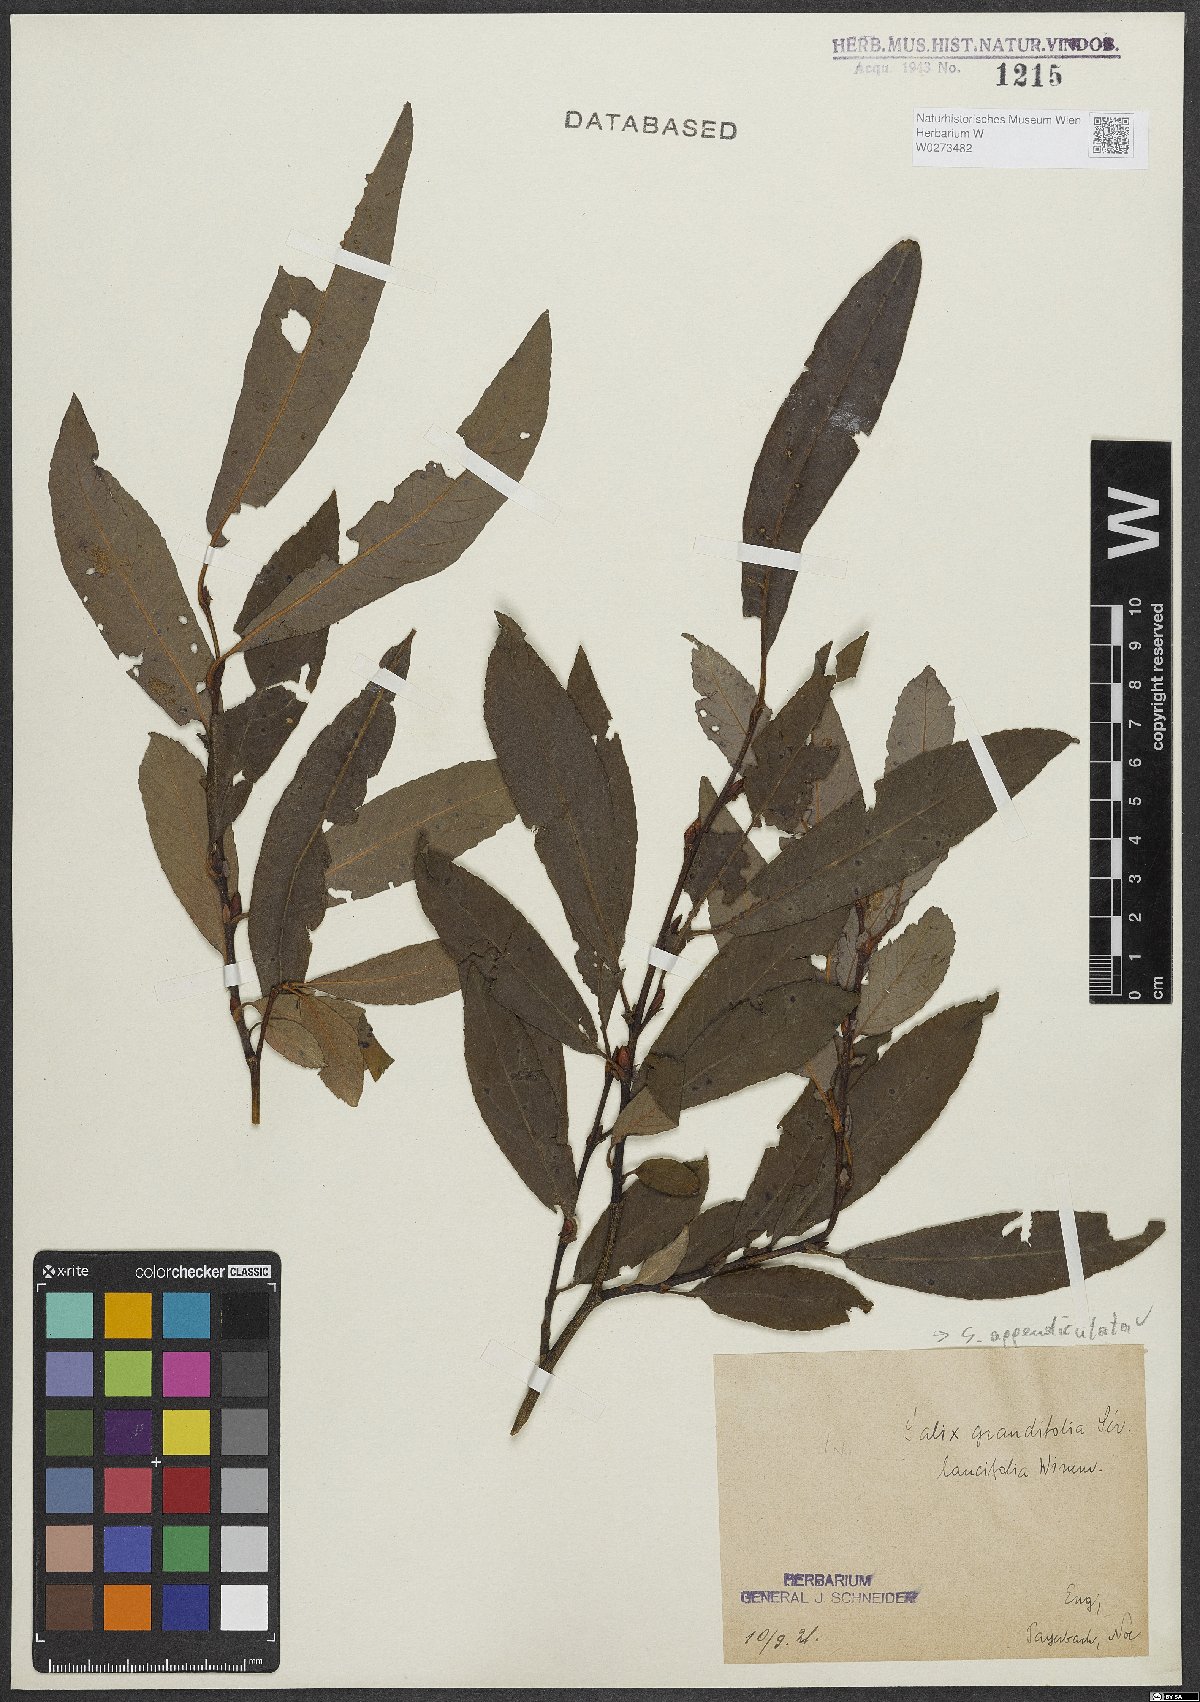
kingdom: Plantae
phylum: Tracheophyta
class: Magnoliopsida
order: Malpighiales
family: Salicaceae
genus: Salix
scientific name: Salix appendiculata
